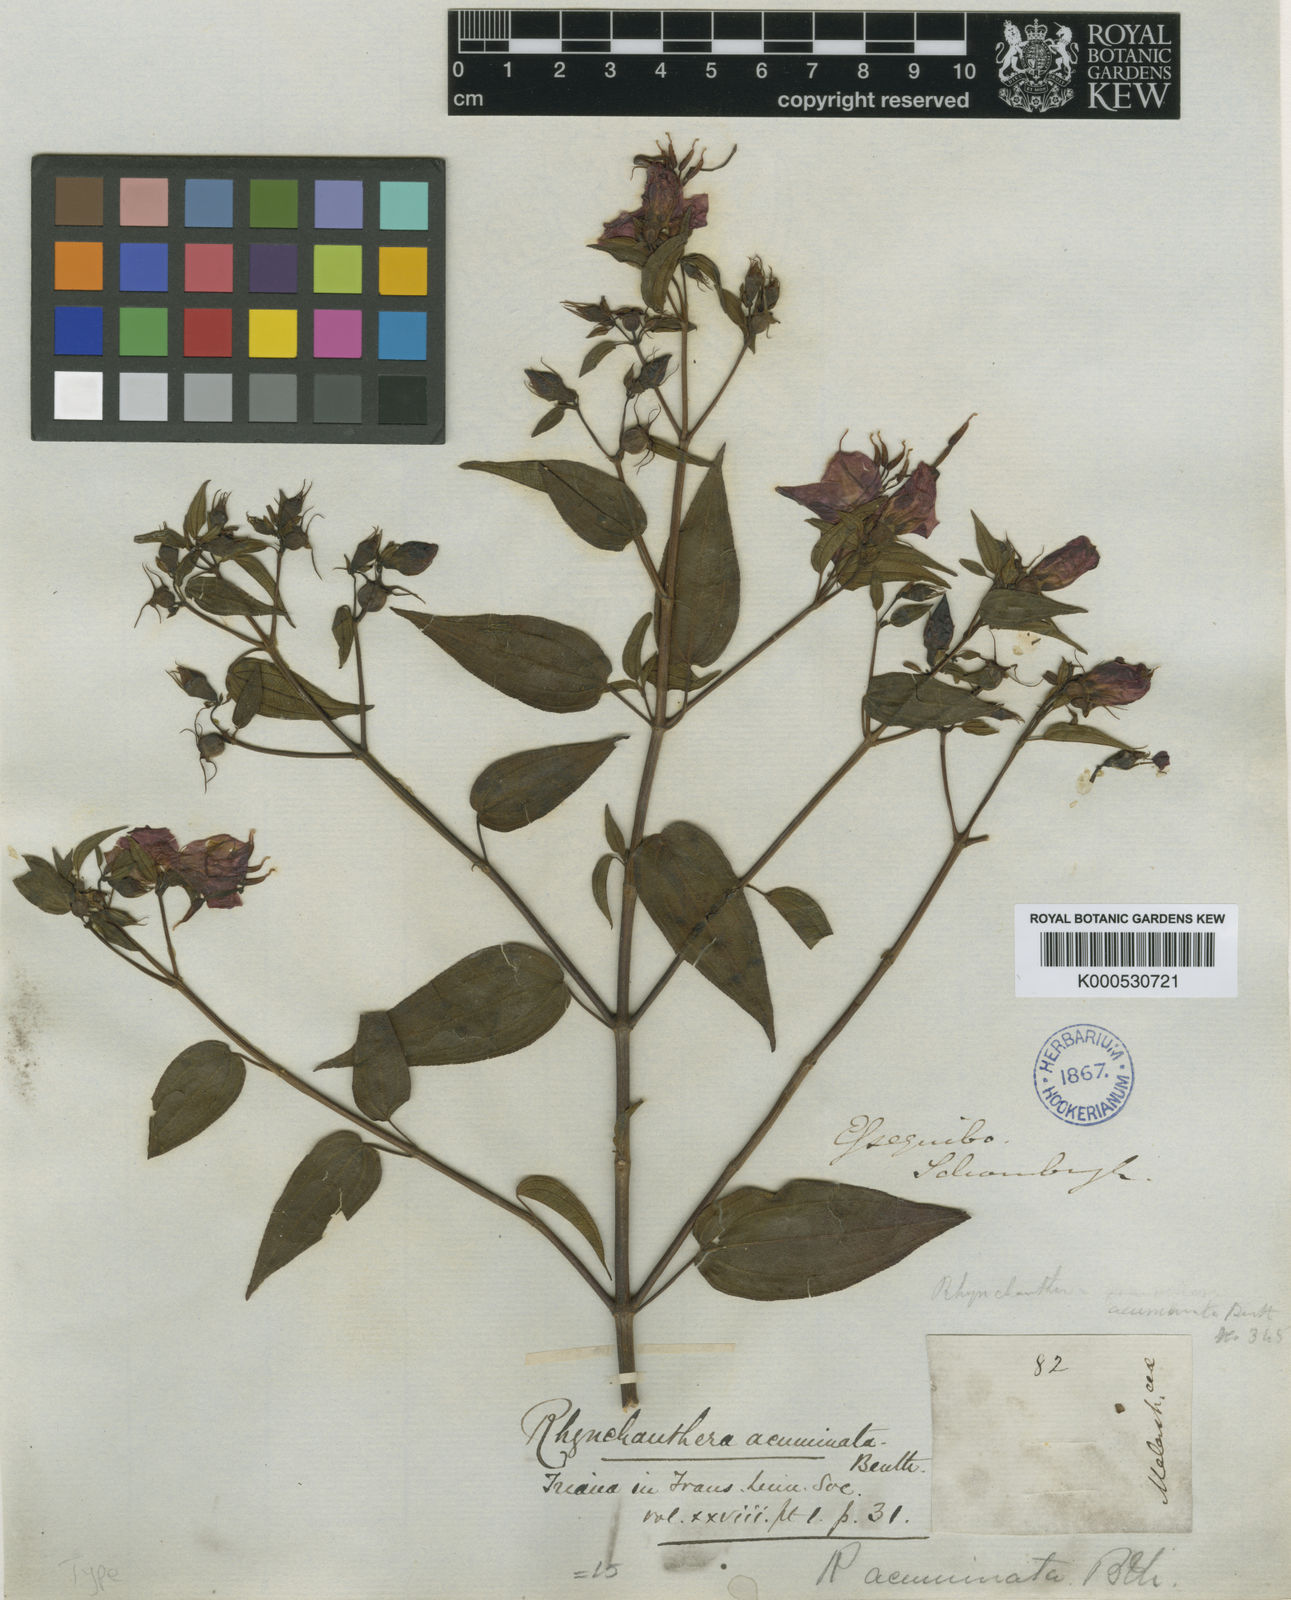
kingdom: Plantae
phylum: Tracheophyta
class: Magnoliopsida
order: Myrtales
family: Melastomataceae
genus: Rhynchanthera
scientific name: Rhynchanthera grandiflora
